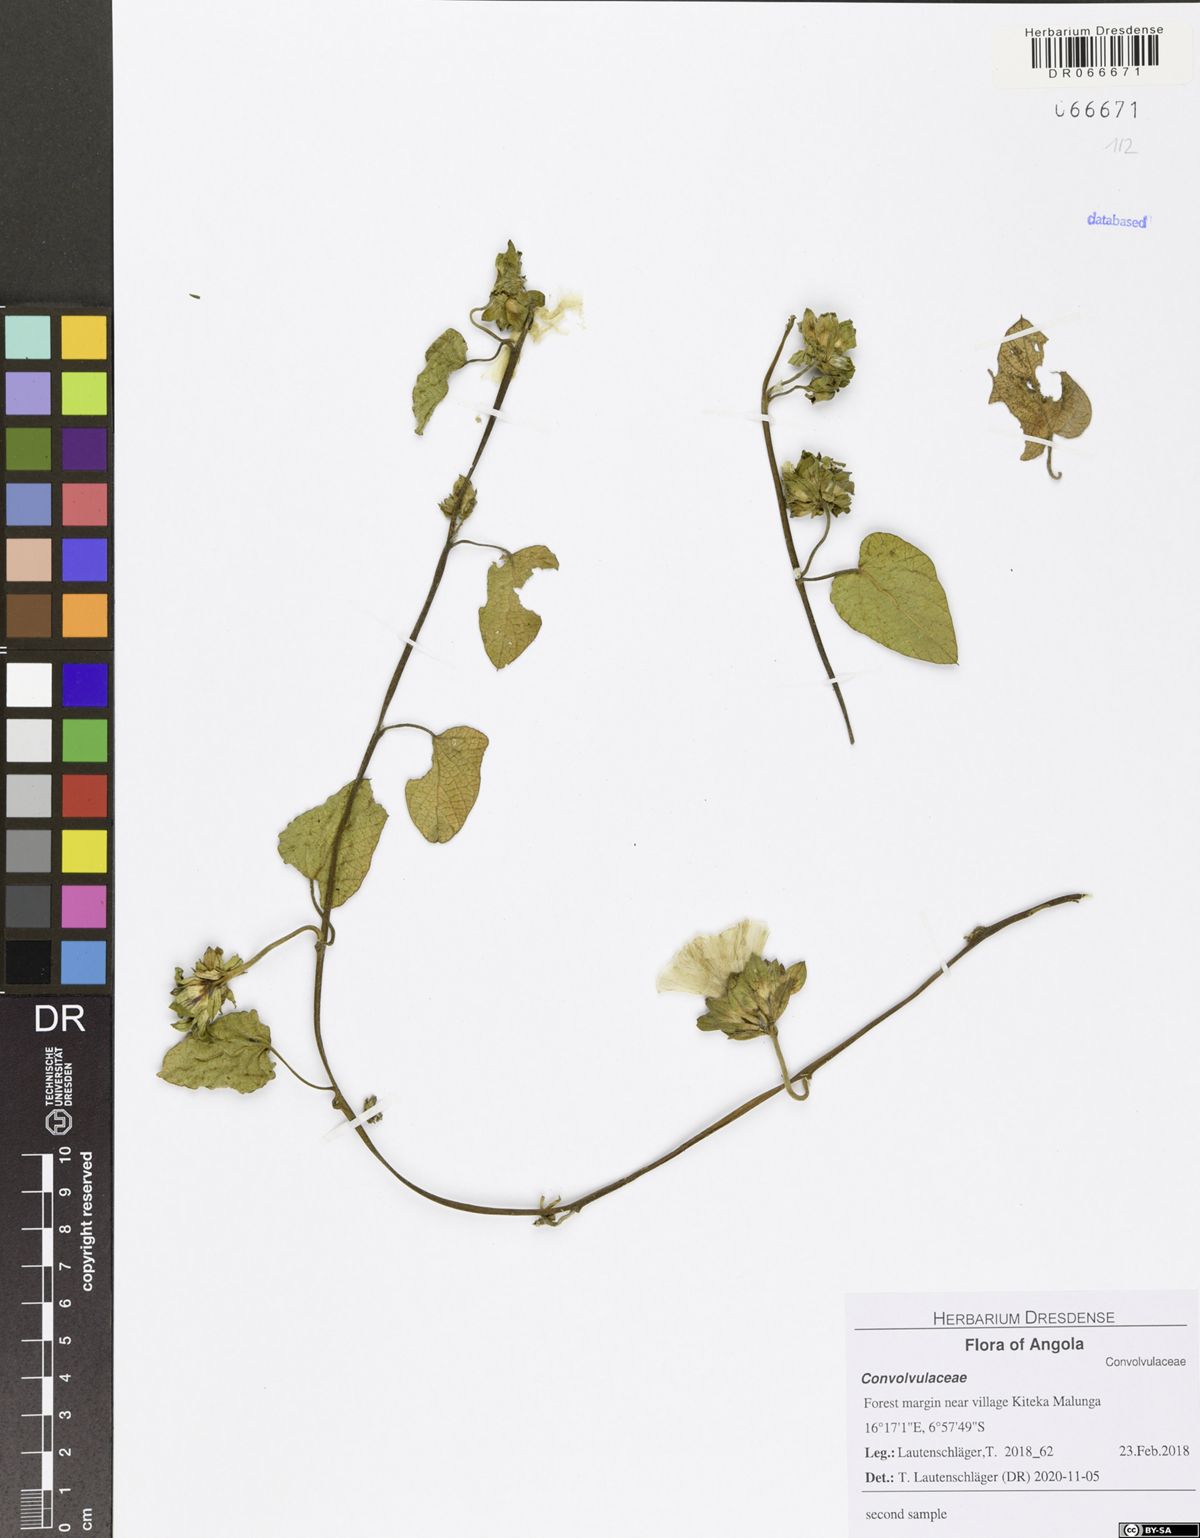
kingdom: Plantae
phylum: Tracheophyta
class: Magnoliopsida
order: Solanales
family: Convolvulaceae
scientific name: Convolvulaceae
